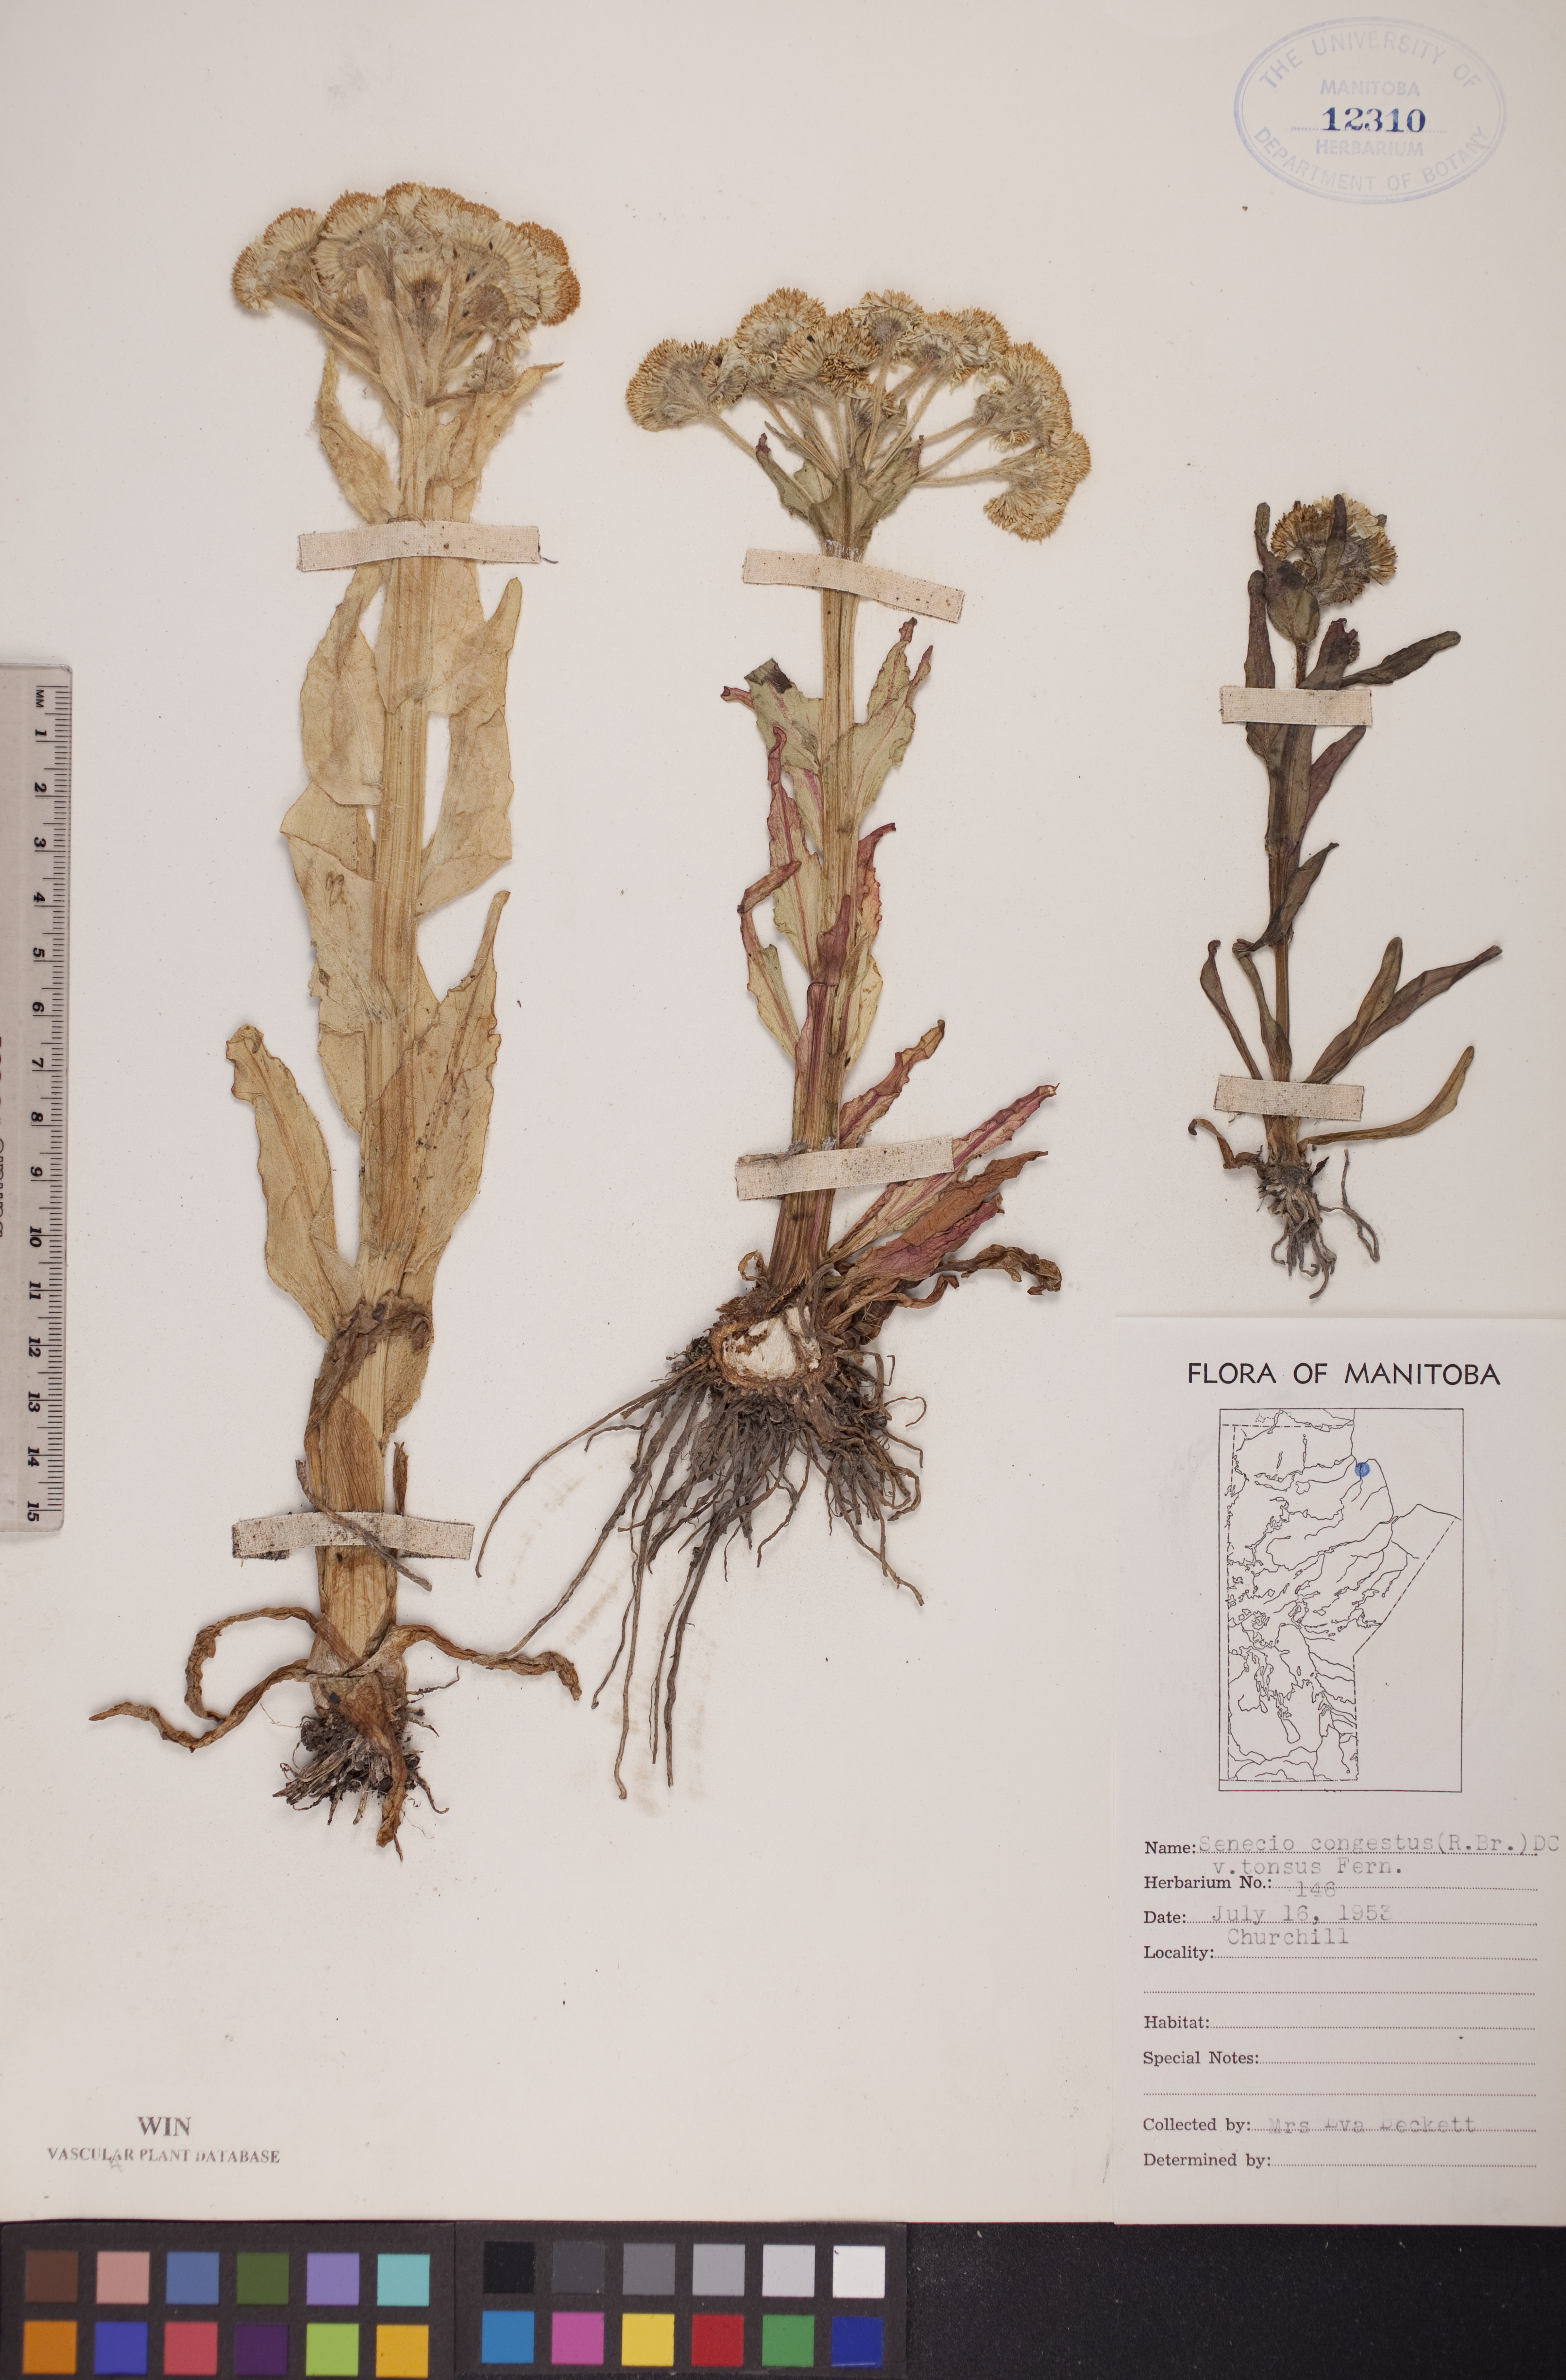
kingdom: Plantae
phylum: Tracheophyta
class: Magnoliopsida
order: Asterales
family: Asteraceae
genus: Tephroseris
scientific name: Tephroseris palustris
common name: Marsh fleawort
